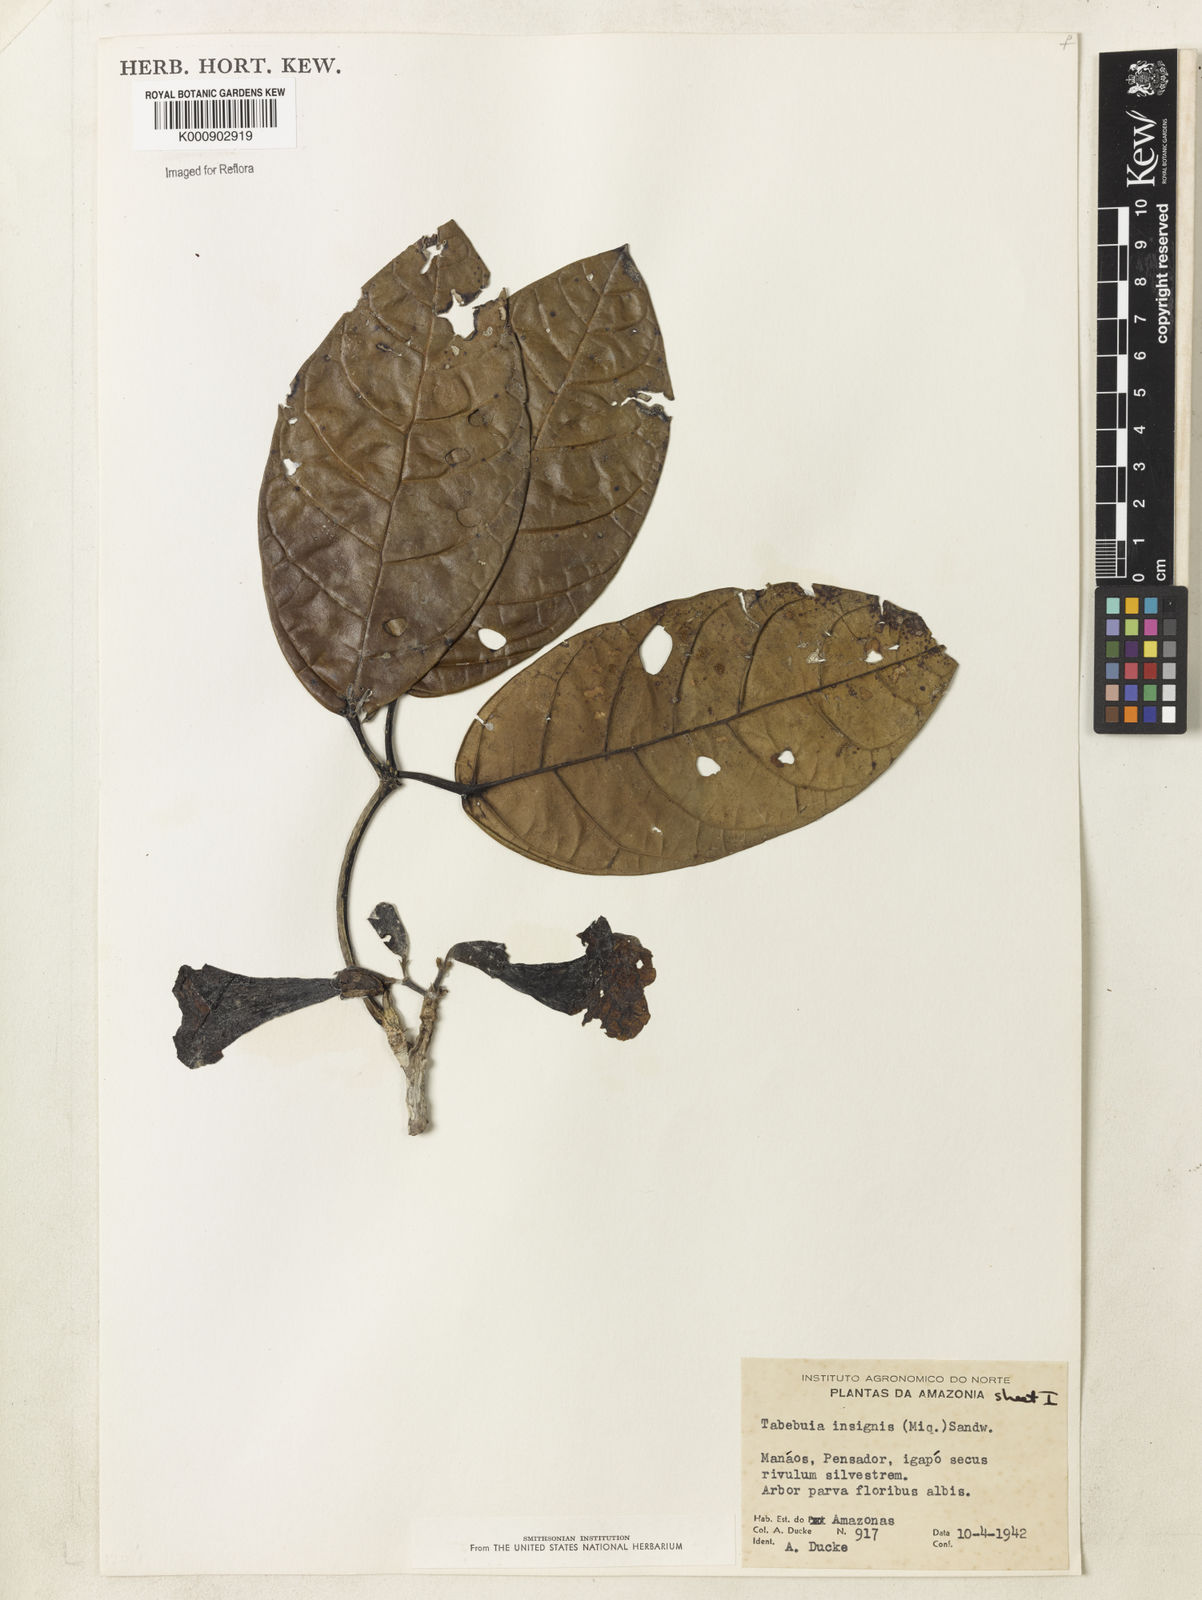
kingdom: Plantae
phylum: Tracheophyta
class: Magnoliopsida
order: Lamiales
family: Bignoniaceae
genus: Tabebuia
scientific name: Tabebuia insignis
